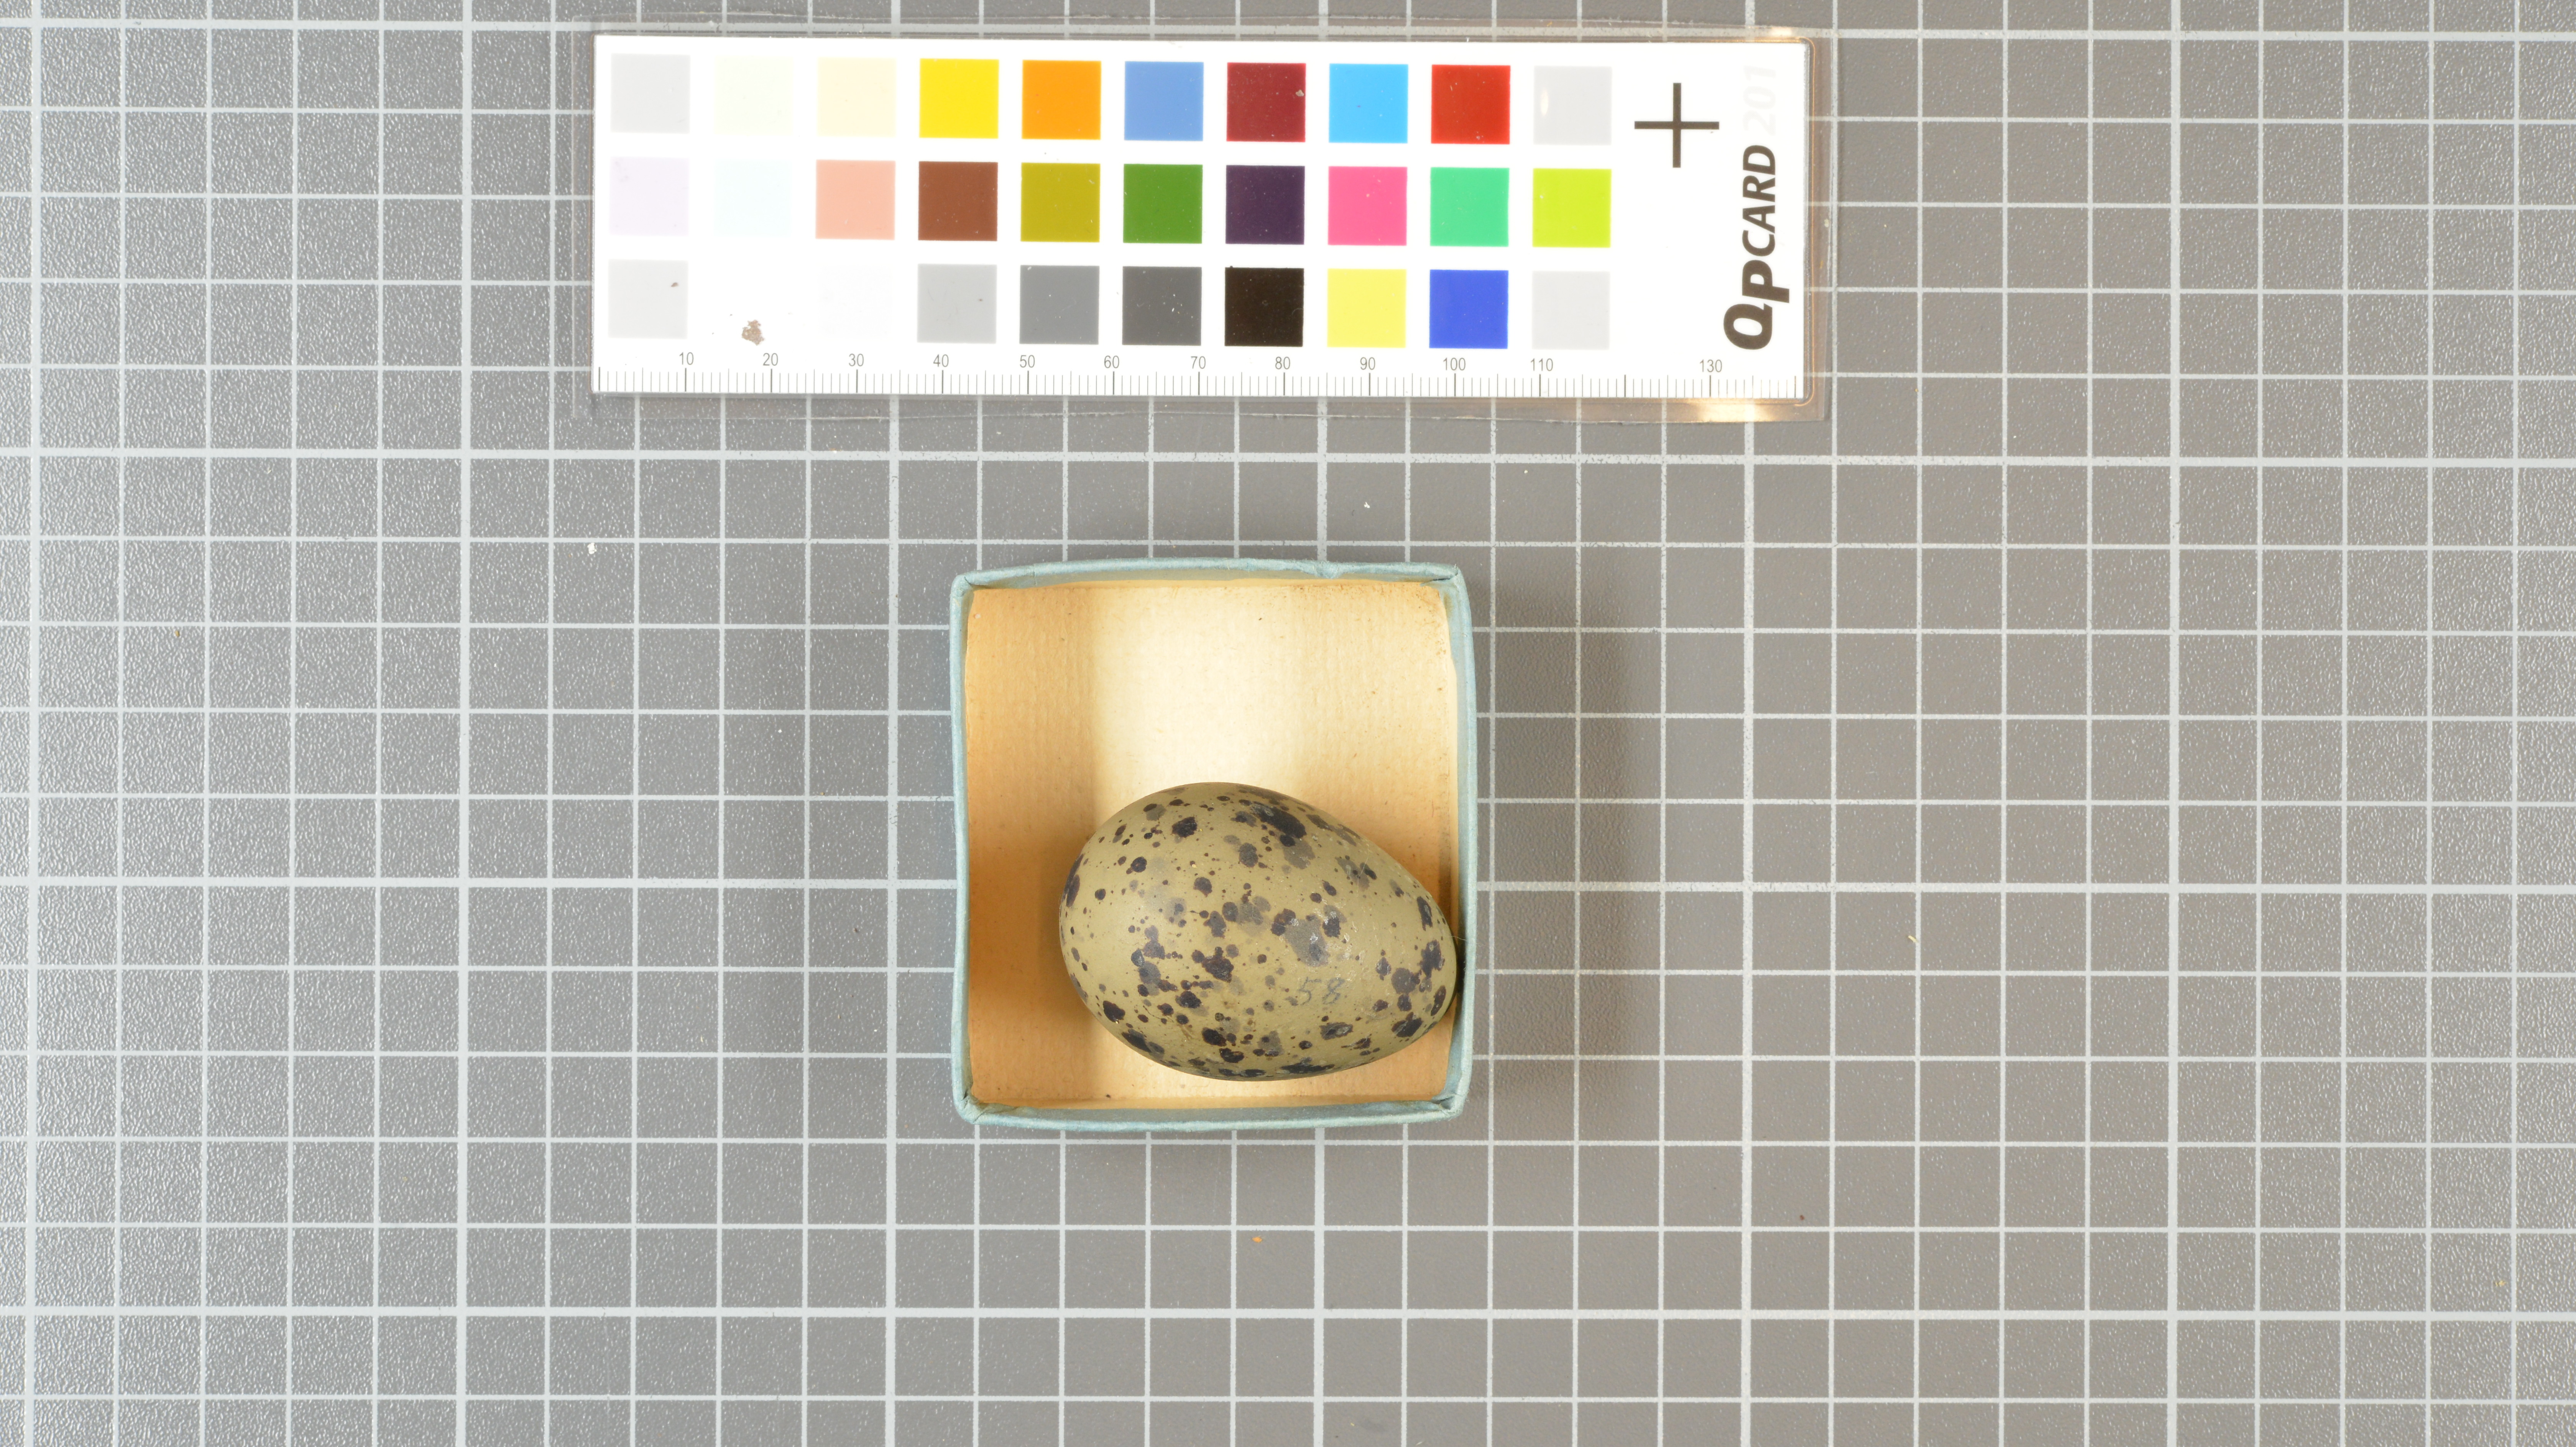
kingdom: Animalia
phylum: Chordata
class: Aves
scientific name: Aves
